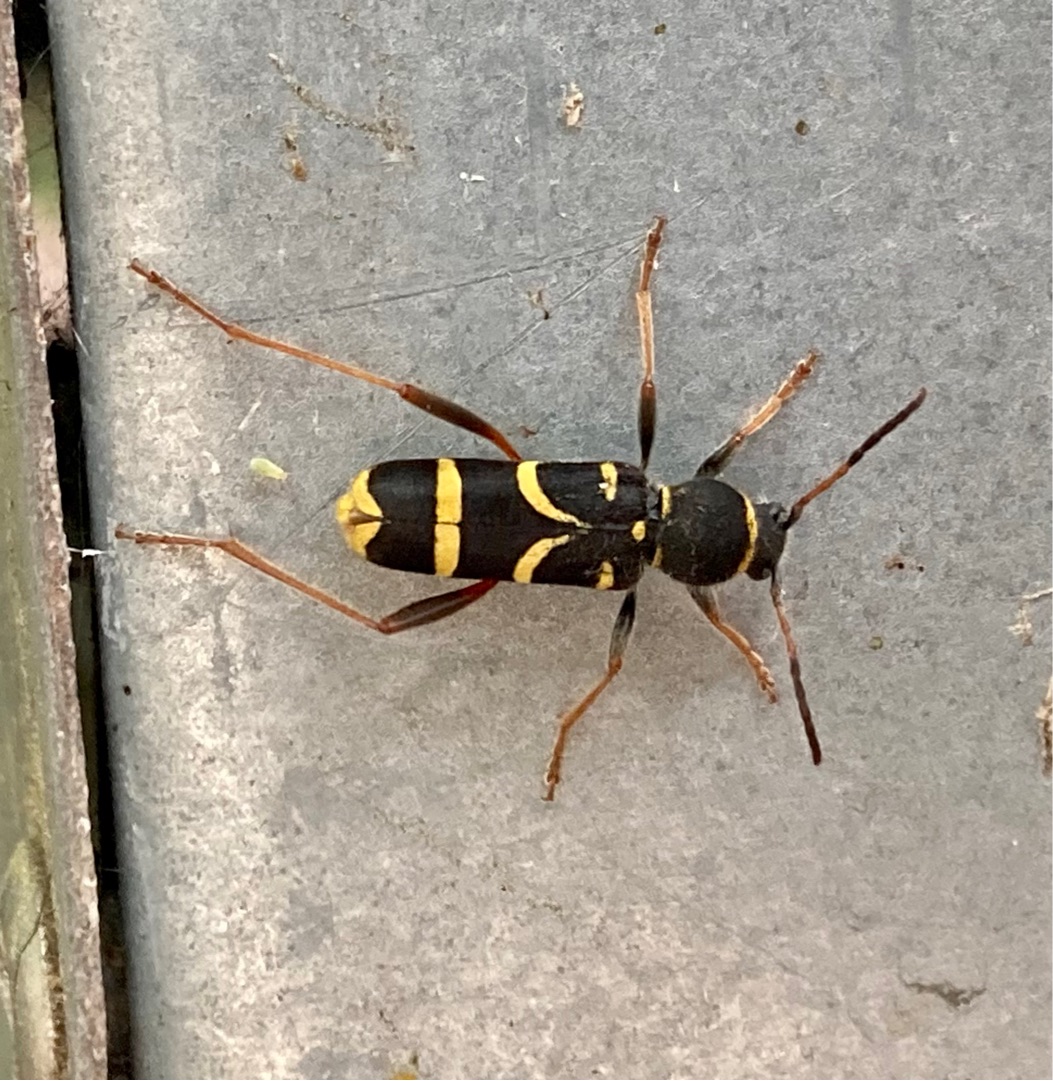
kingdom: Animalia
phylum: Arthropoda
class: Insecta
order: Coleoptera
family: Cerambycidae
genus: Clytus
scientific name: Clytus arietis
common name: Lille hvepsebuk
